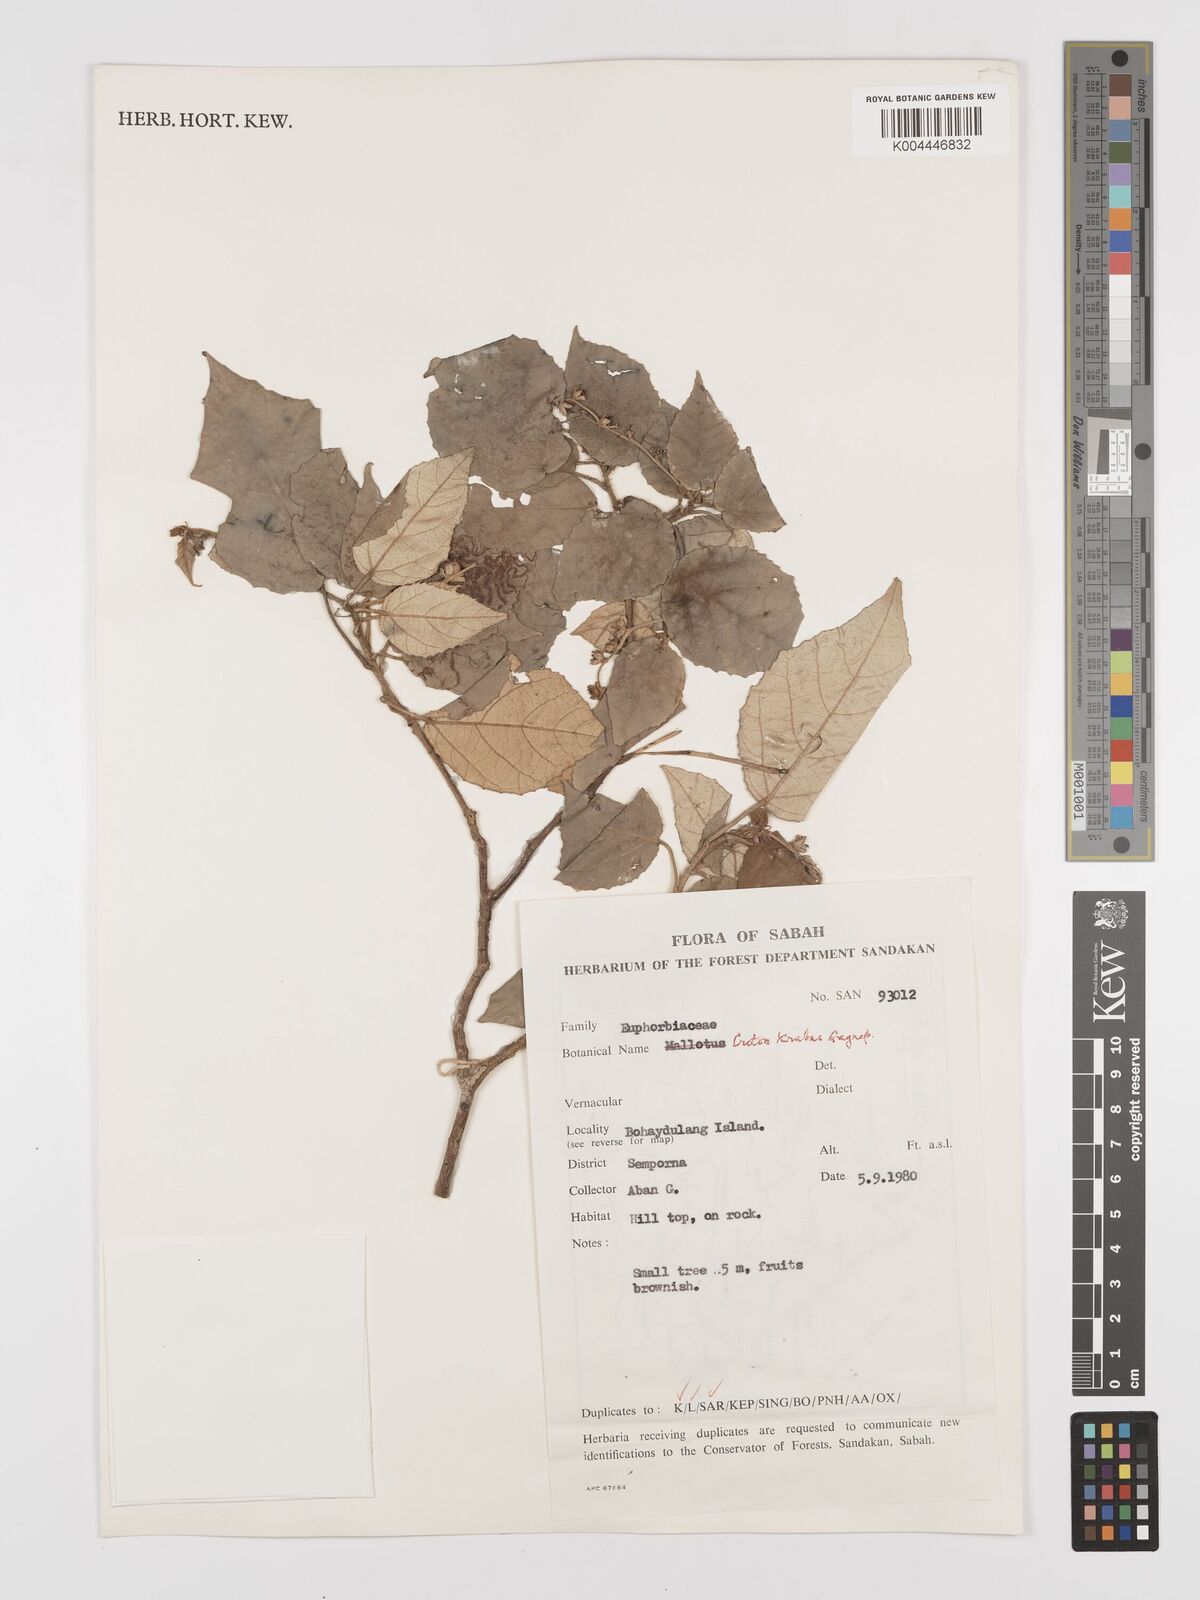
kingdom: Plantae
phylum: Tracheophyta
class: Magnoliopsida
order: Malpighiales
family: Euphorbiaceae
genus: Croton
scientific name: Croton krabas
